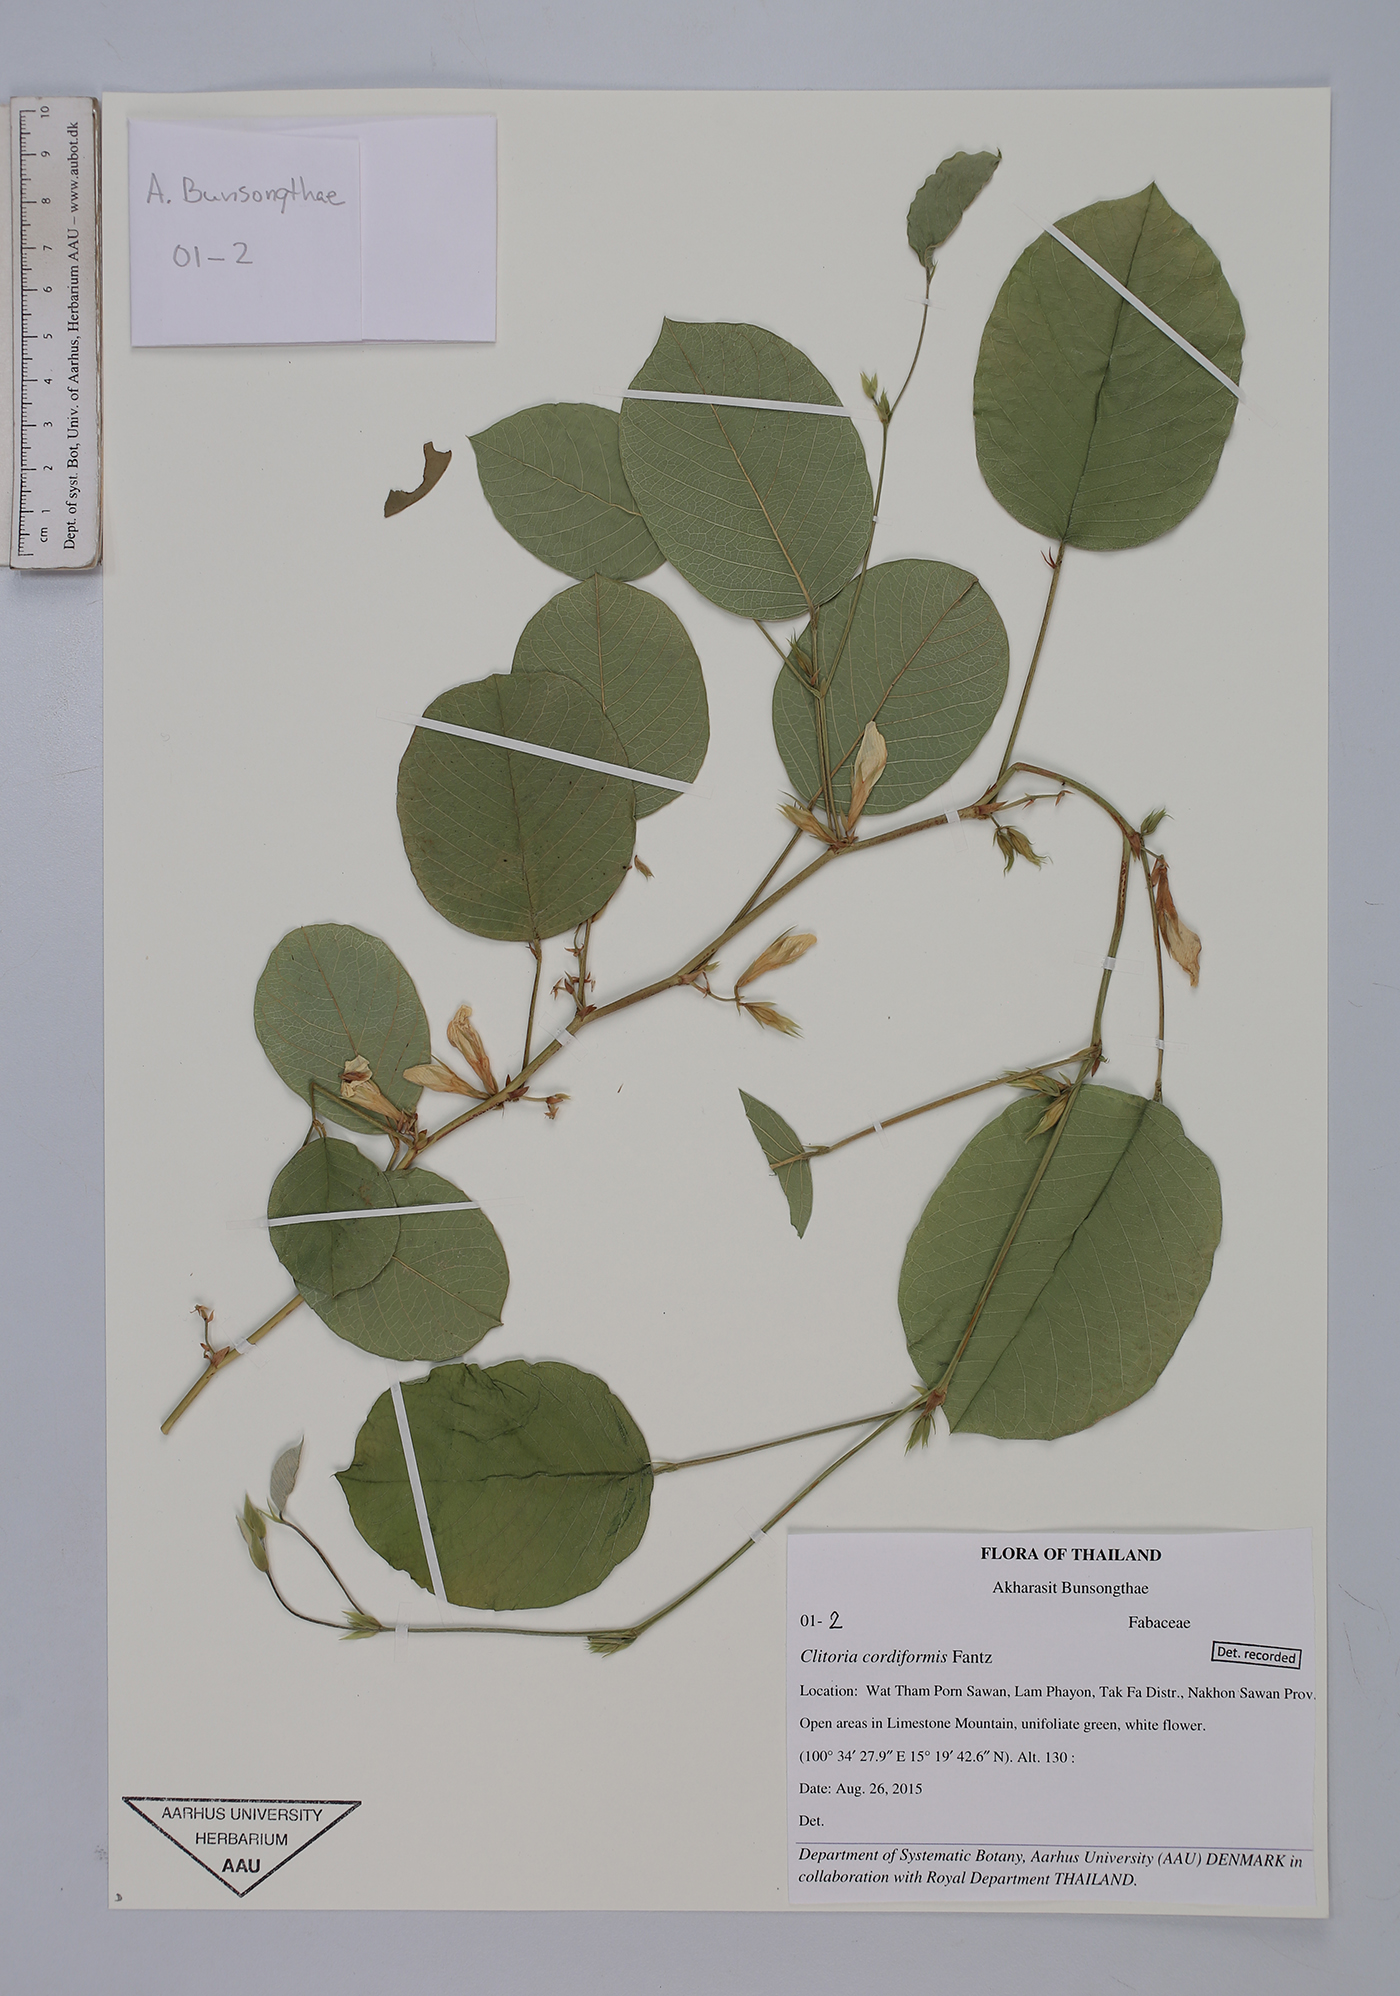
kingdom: Plantae
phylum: Tracheophyta
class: Magnoliopsida
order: Fabales
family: Fabaceae
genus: Clitoria
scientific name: Clitoria cordiformis
